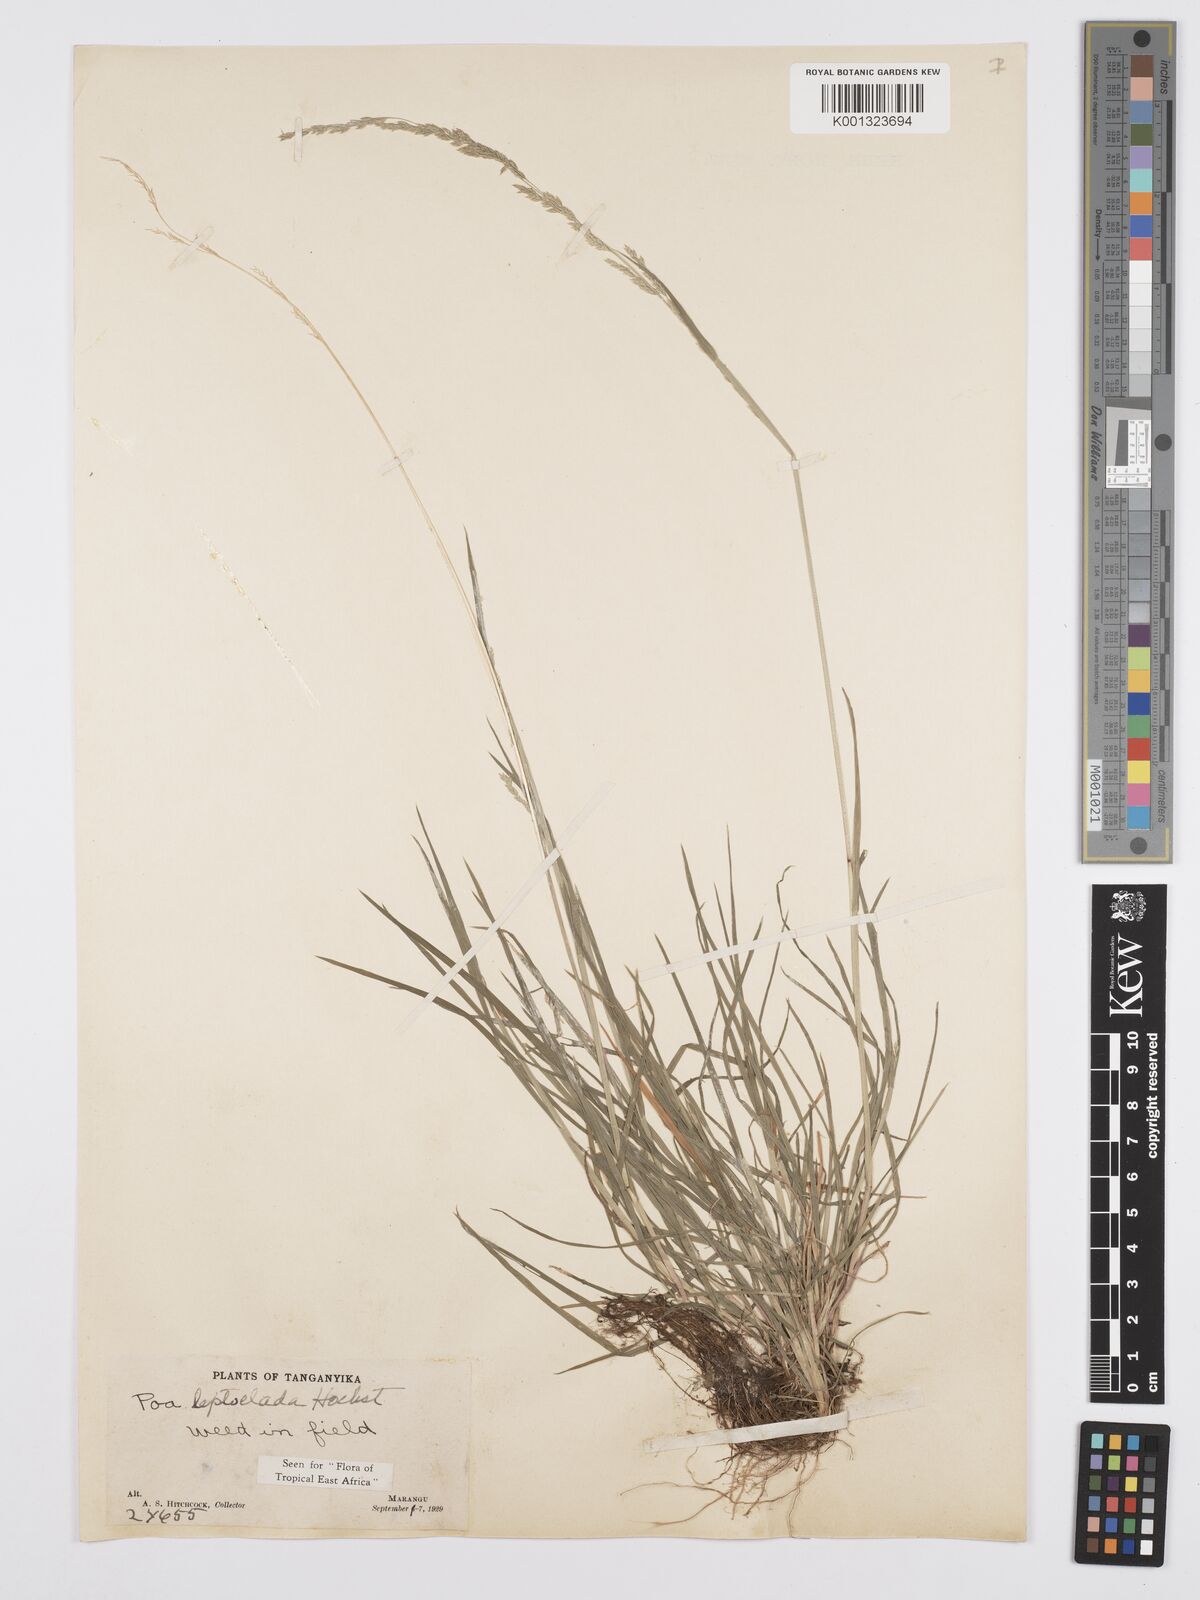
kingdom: Plantae
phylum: Tracheophyta
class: Liliopsida
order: Poales
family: Poaceae
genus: Poa
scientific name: Poa leptoclada
